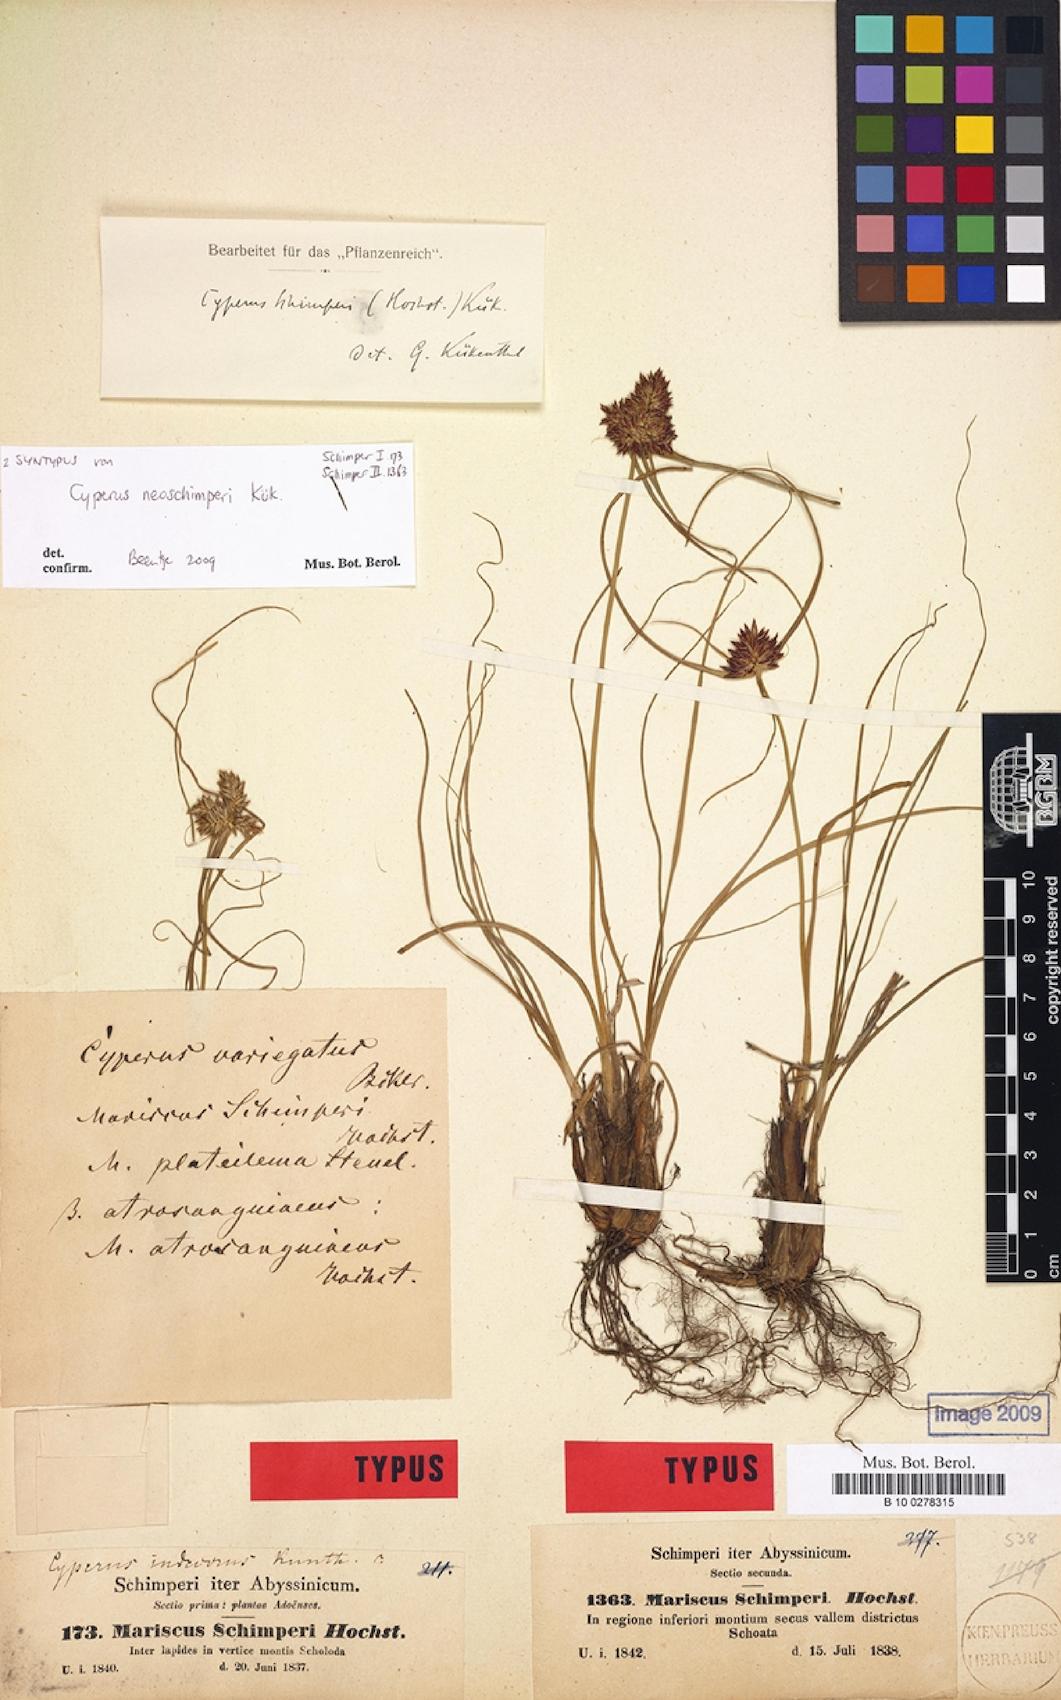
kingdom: Plantae
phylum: Tracheophyta
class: Liliopsida
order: Poales
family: Cyperaceae
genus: Cyperus
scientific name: Cyperus cruentus
